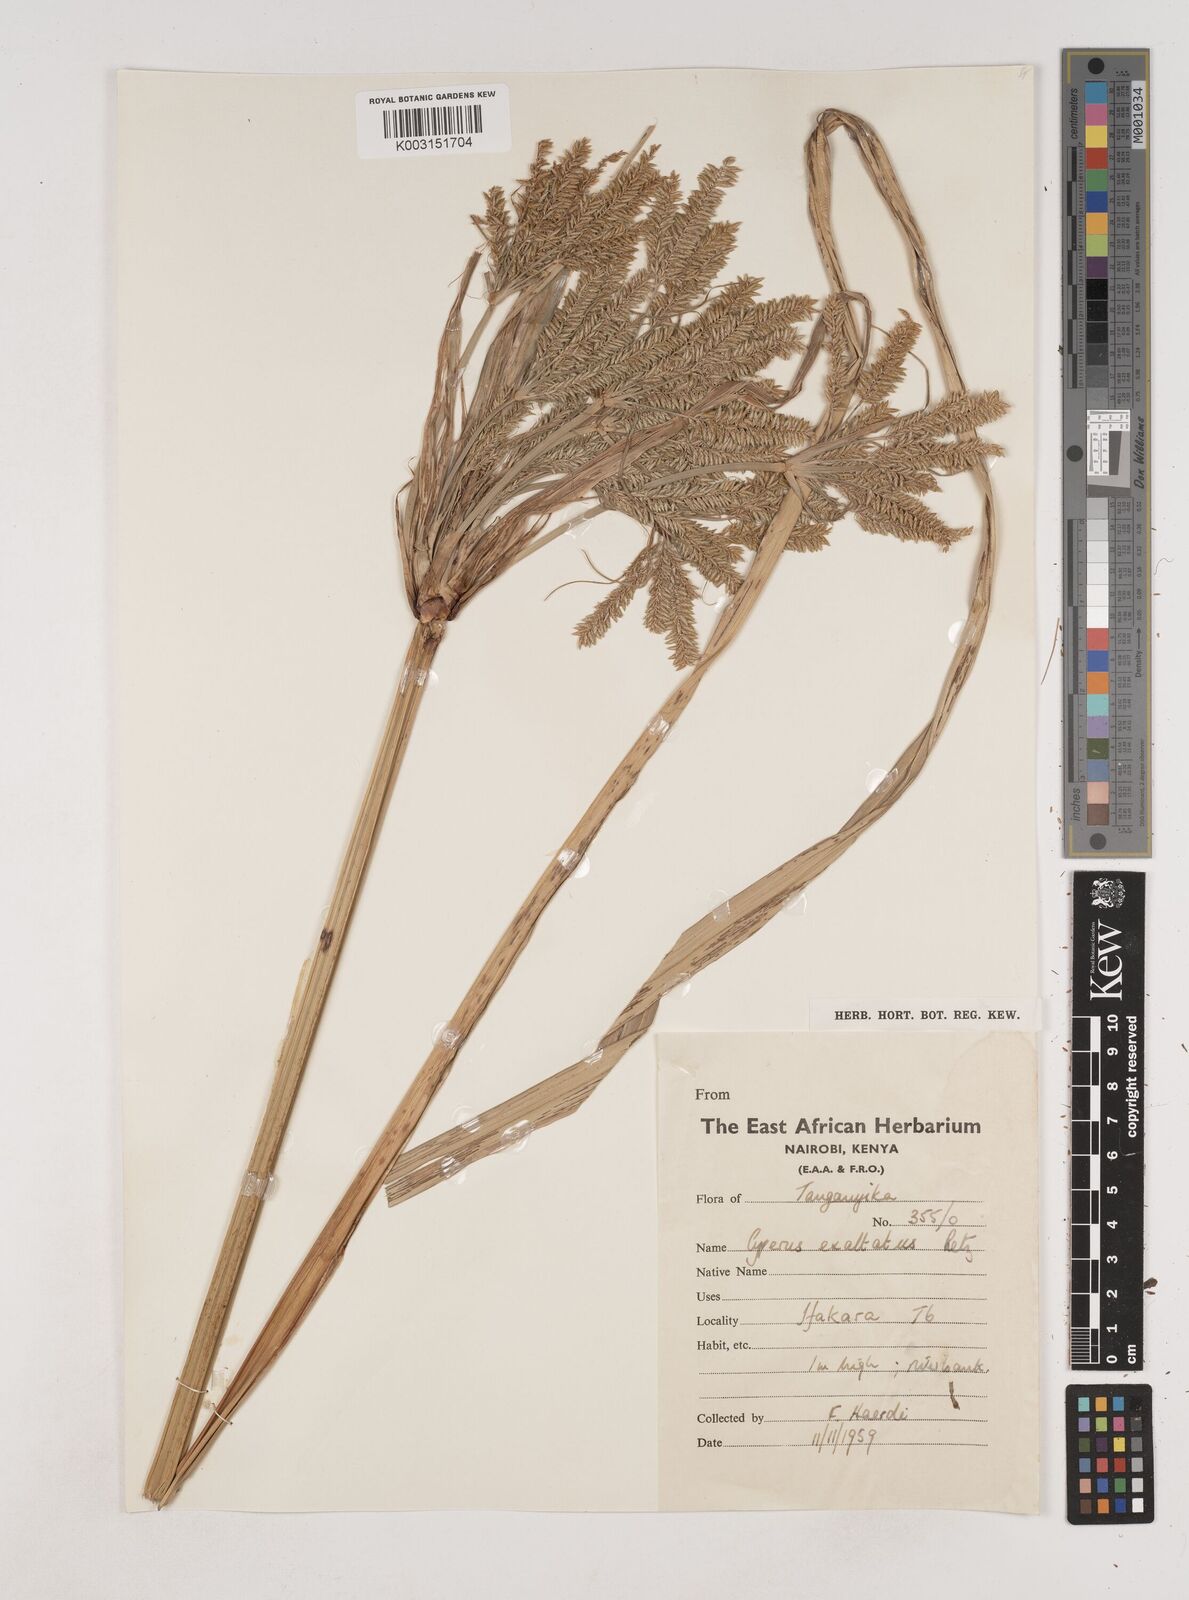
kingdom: Plantae
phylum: Tracheophyta
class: Liliopsida
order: Poales
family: Cyperaceae
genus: Cyperus
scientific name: Cyperus exaltatus
